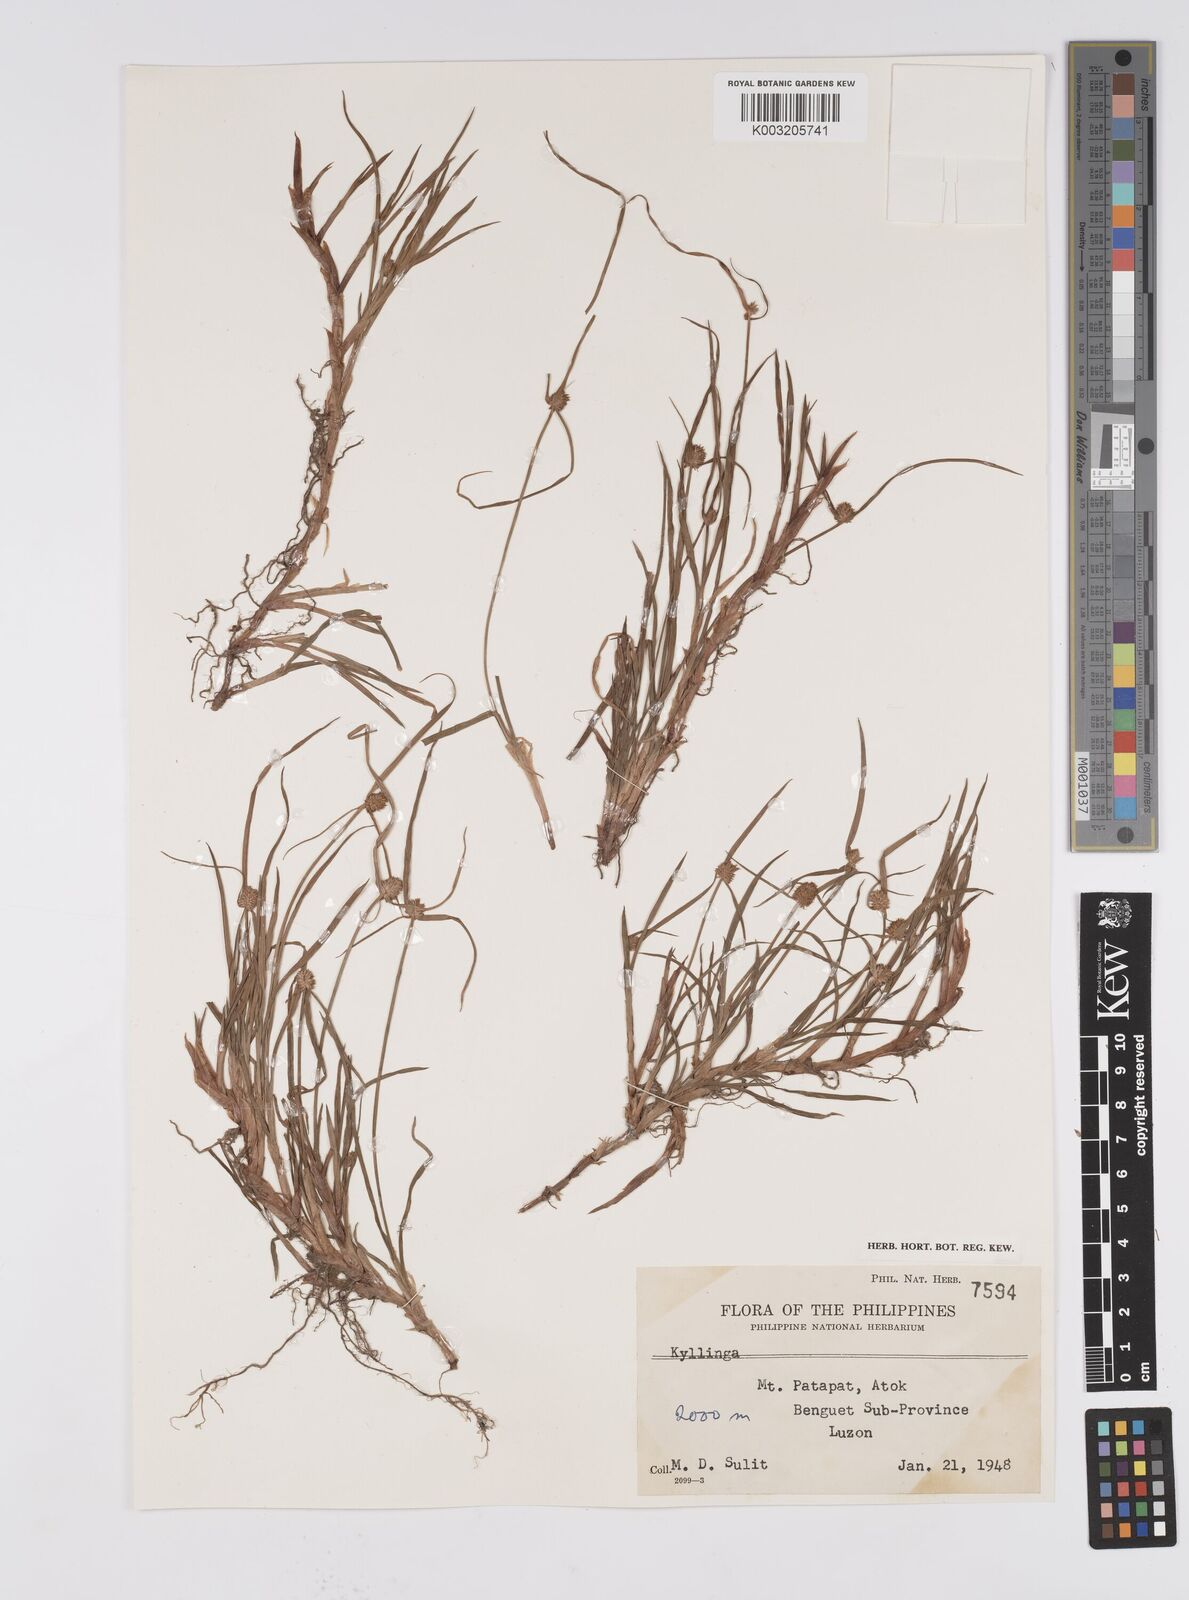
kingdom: Plantae
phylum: Tracheophyta
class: Liliopsida
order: Poales
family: Cyperaceae
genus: Cyperus
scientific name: Cyperus melanospermus
